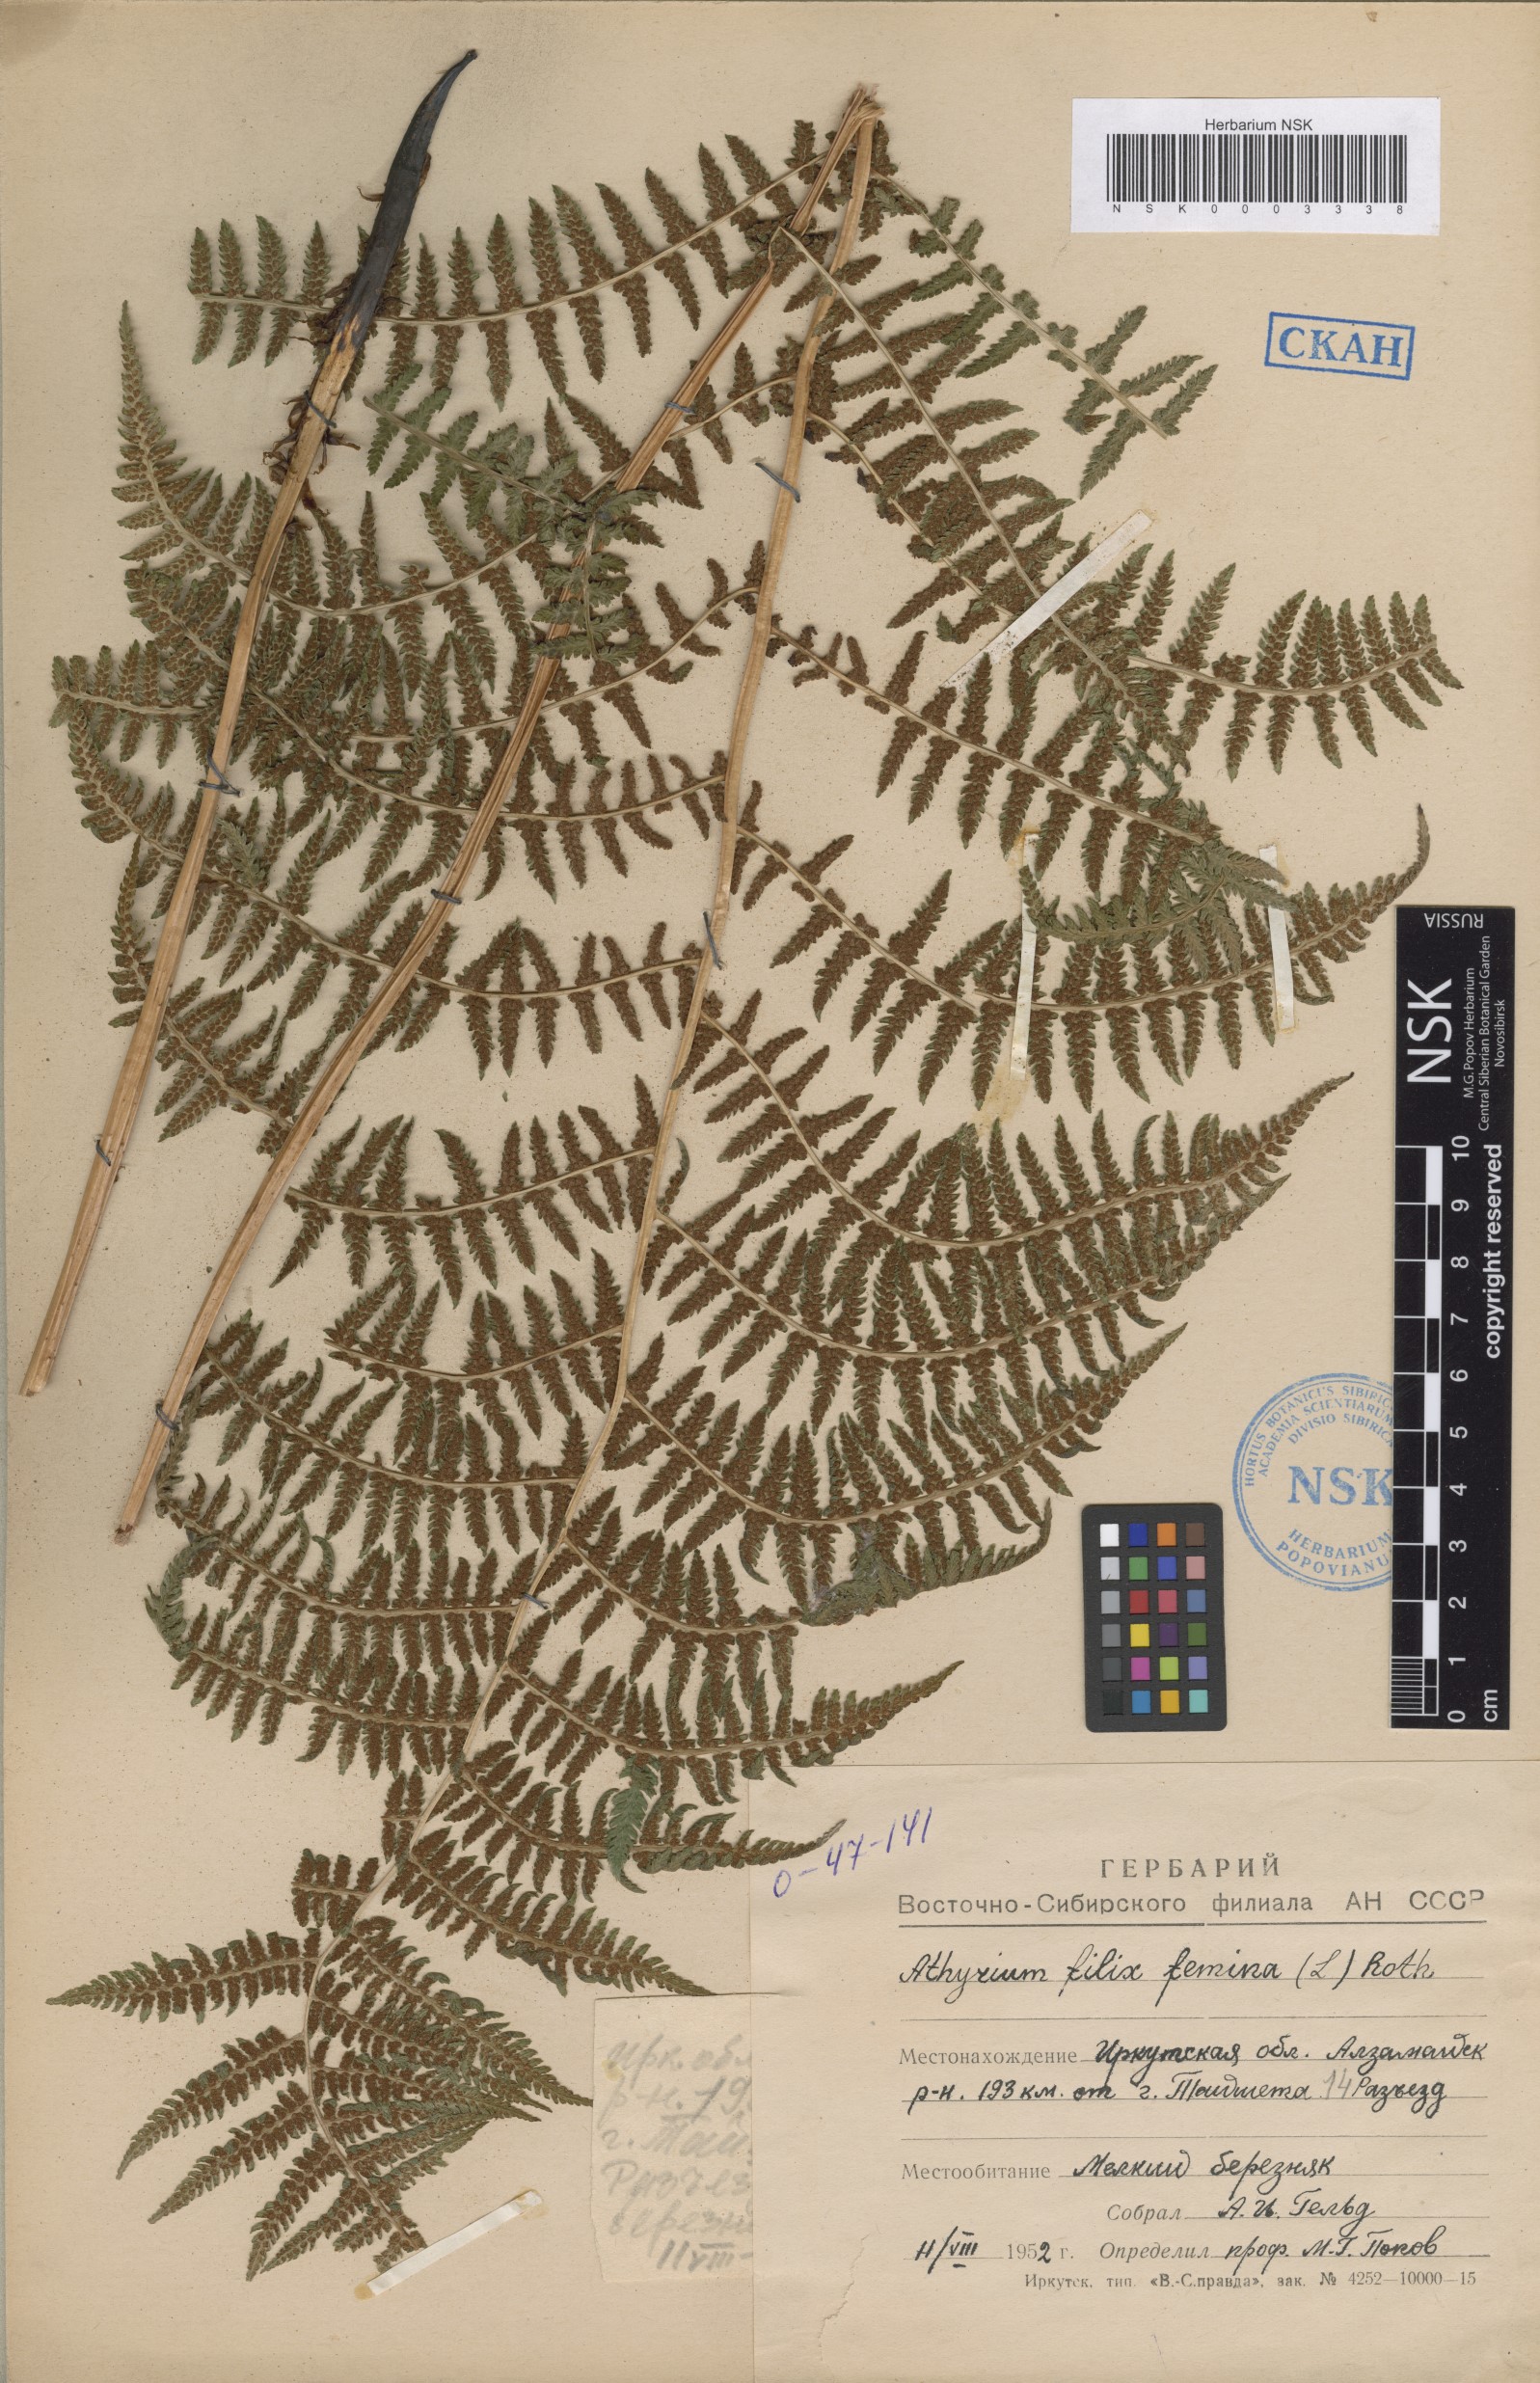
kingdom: Plantae
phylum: Tracheophyta
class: Polypodiopsida
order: Polypodiales
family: Athyriaceae
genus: Athyrium
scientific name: Athyrium filix-femina
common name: Lady fern
